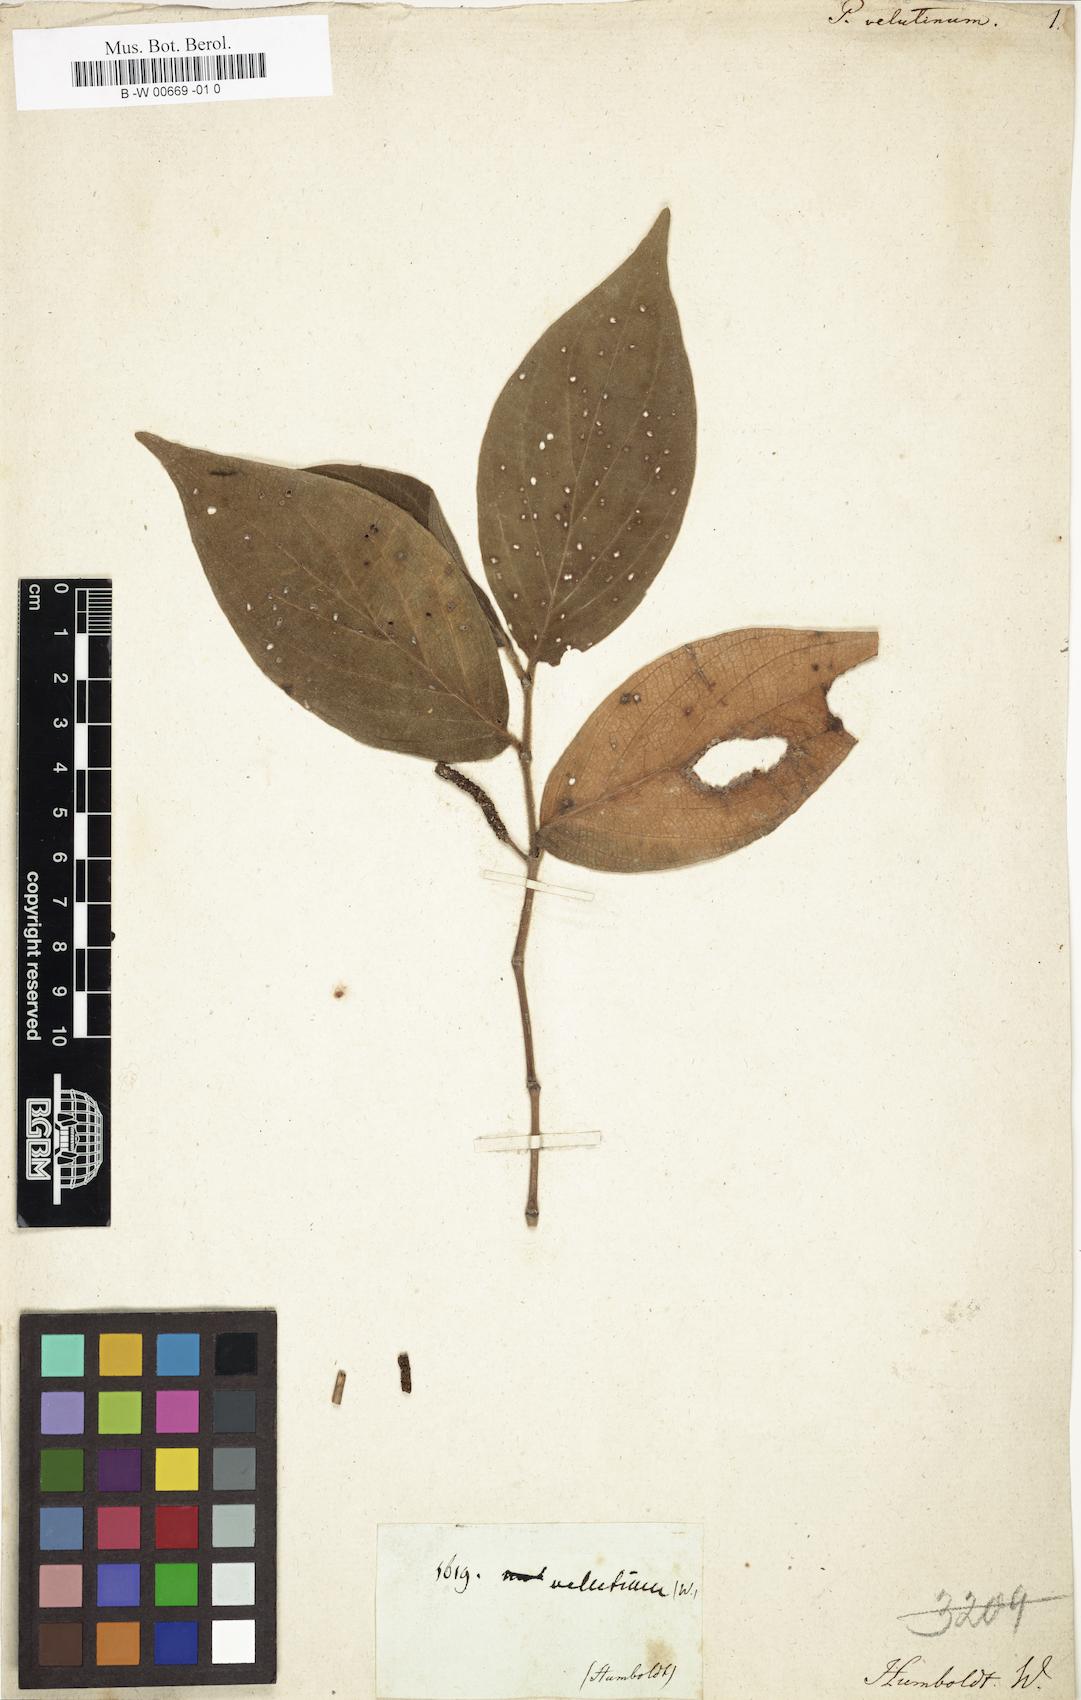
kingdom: Plantae
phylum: Tracheophyta
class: Magnoliopsida
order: Piperales
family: Piperaceae
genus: Piper
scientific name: Piper velutinum
